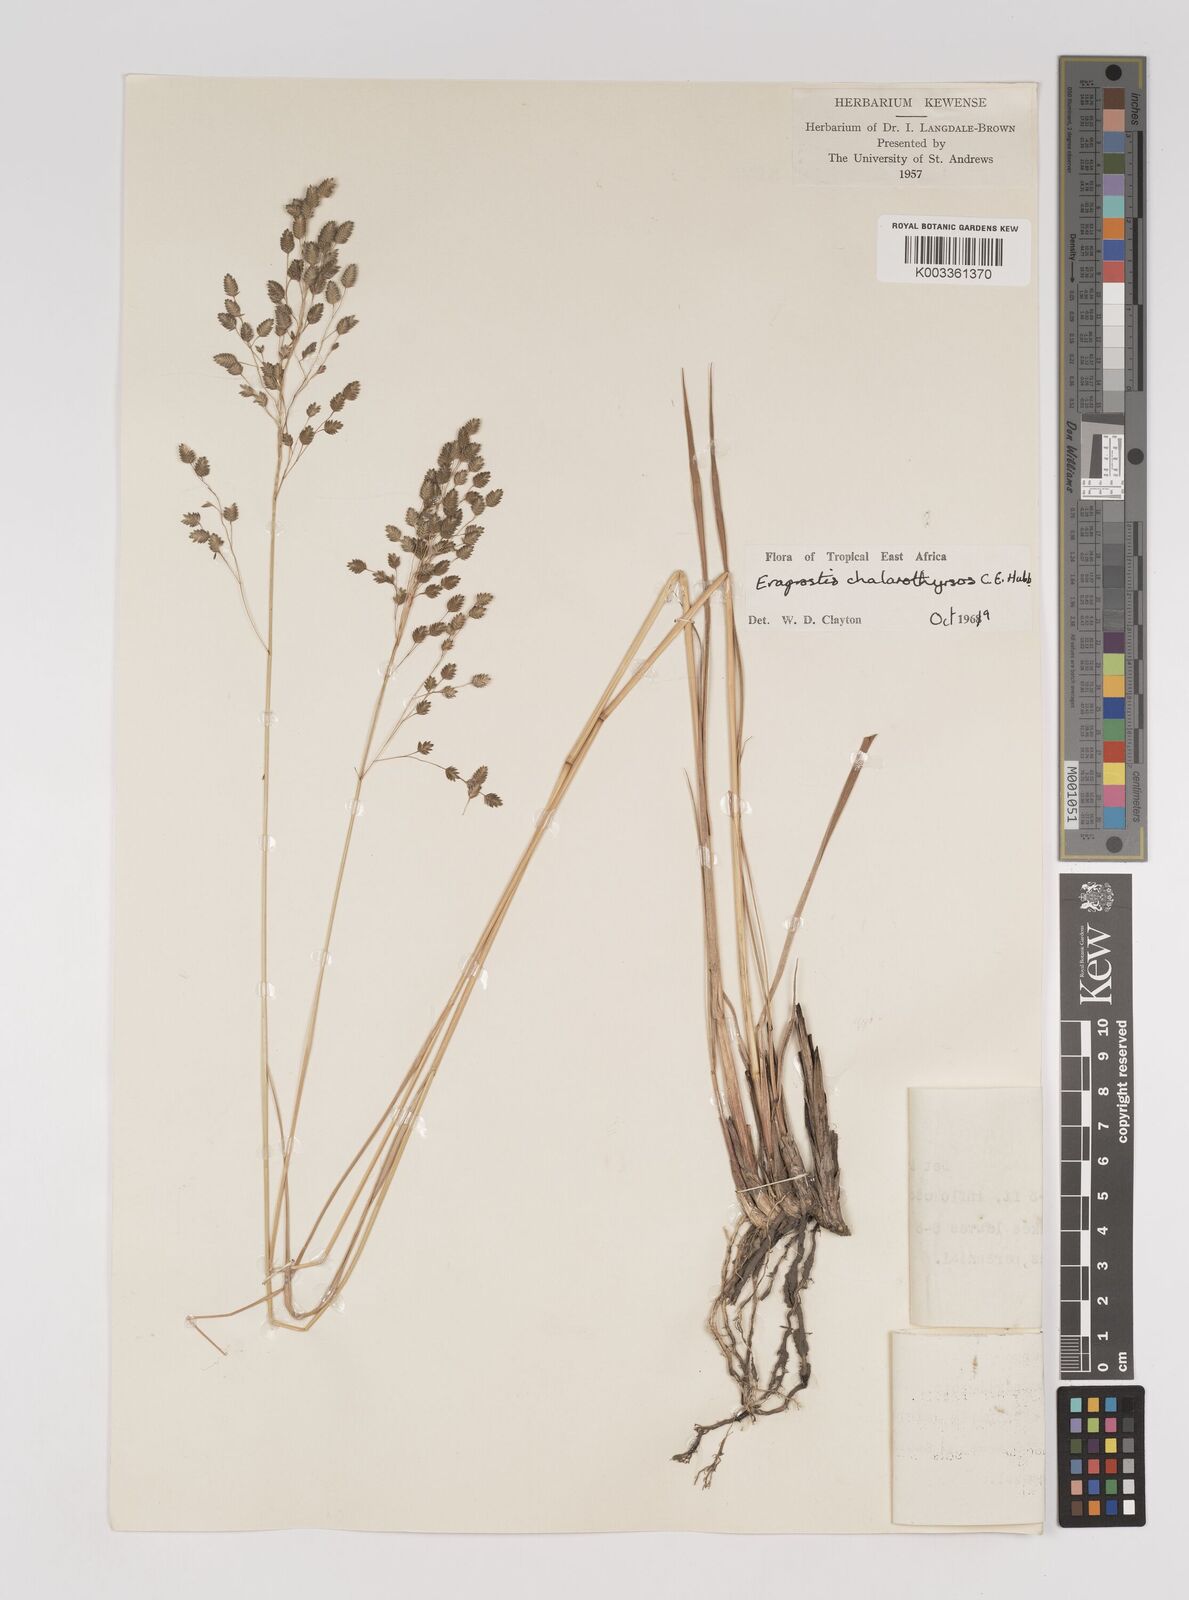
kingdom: Plantae
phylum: Tracheophyta
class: Liliopsida
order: Poales
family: Poaceae
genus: Eragrostis
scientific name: Eragrostis chalarothyrsos
